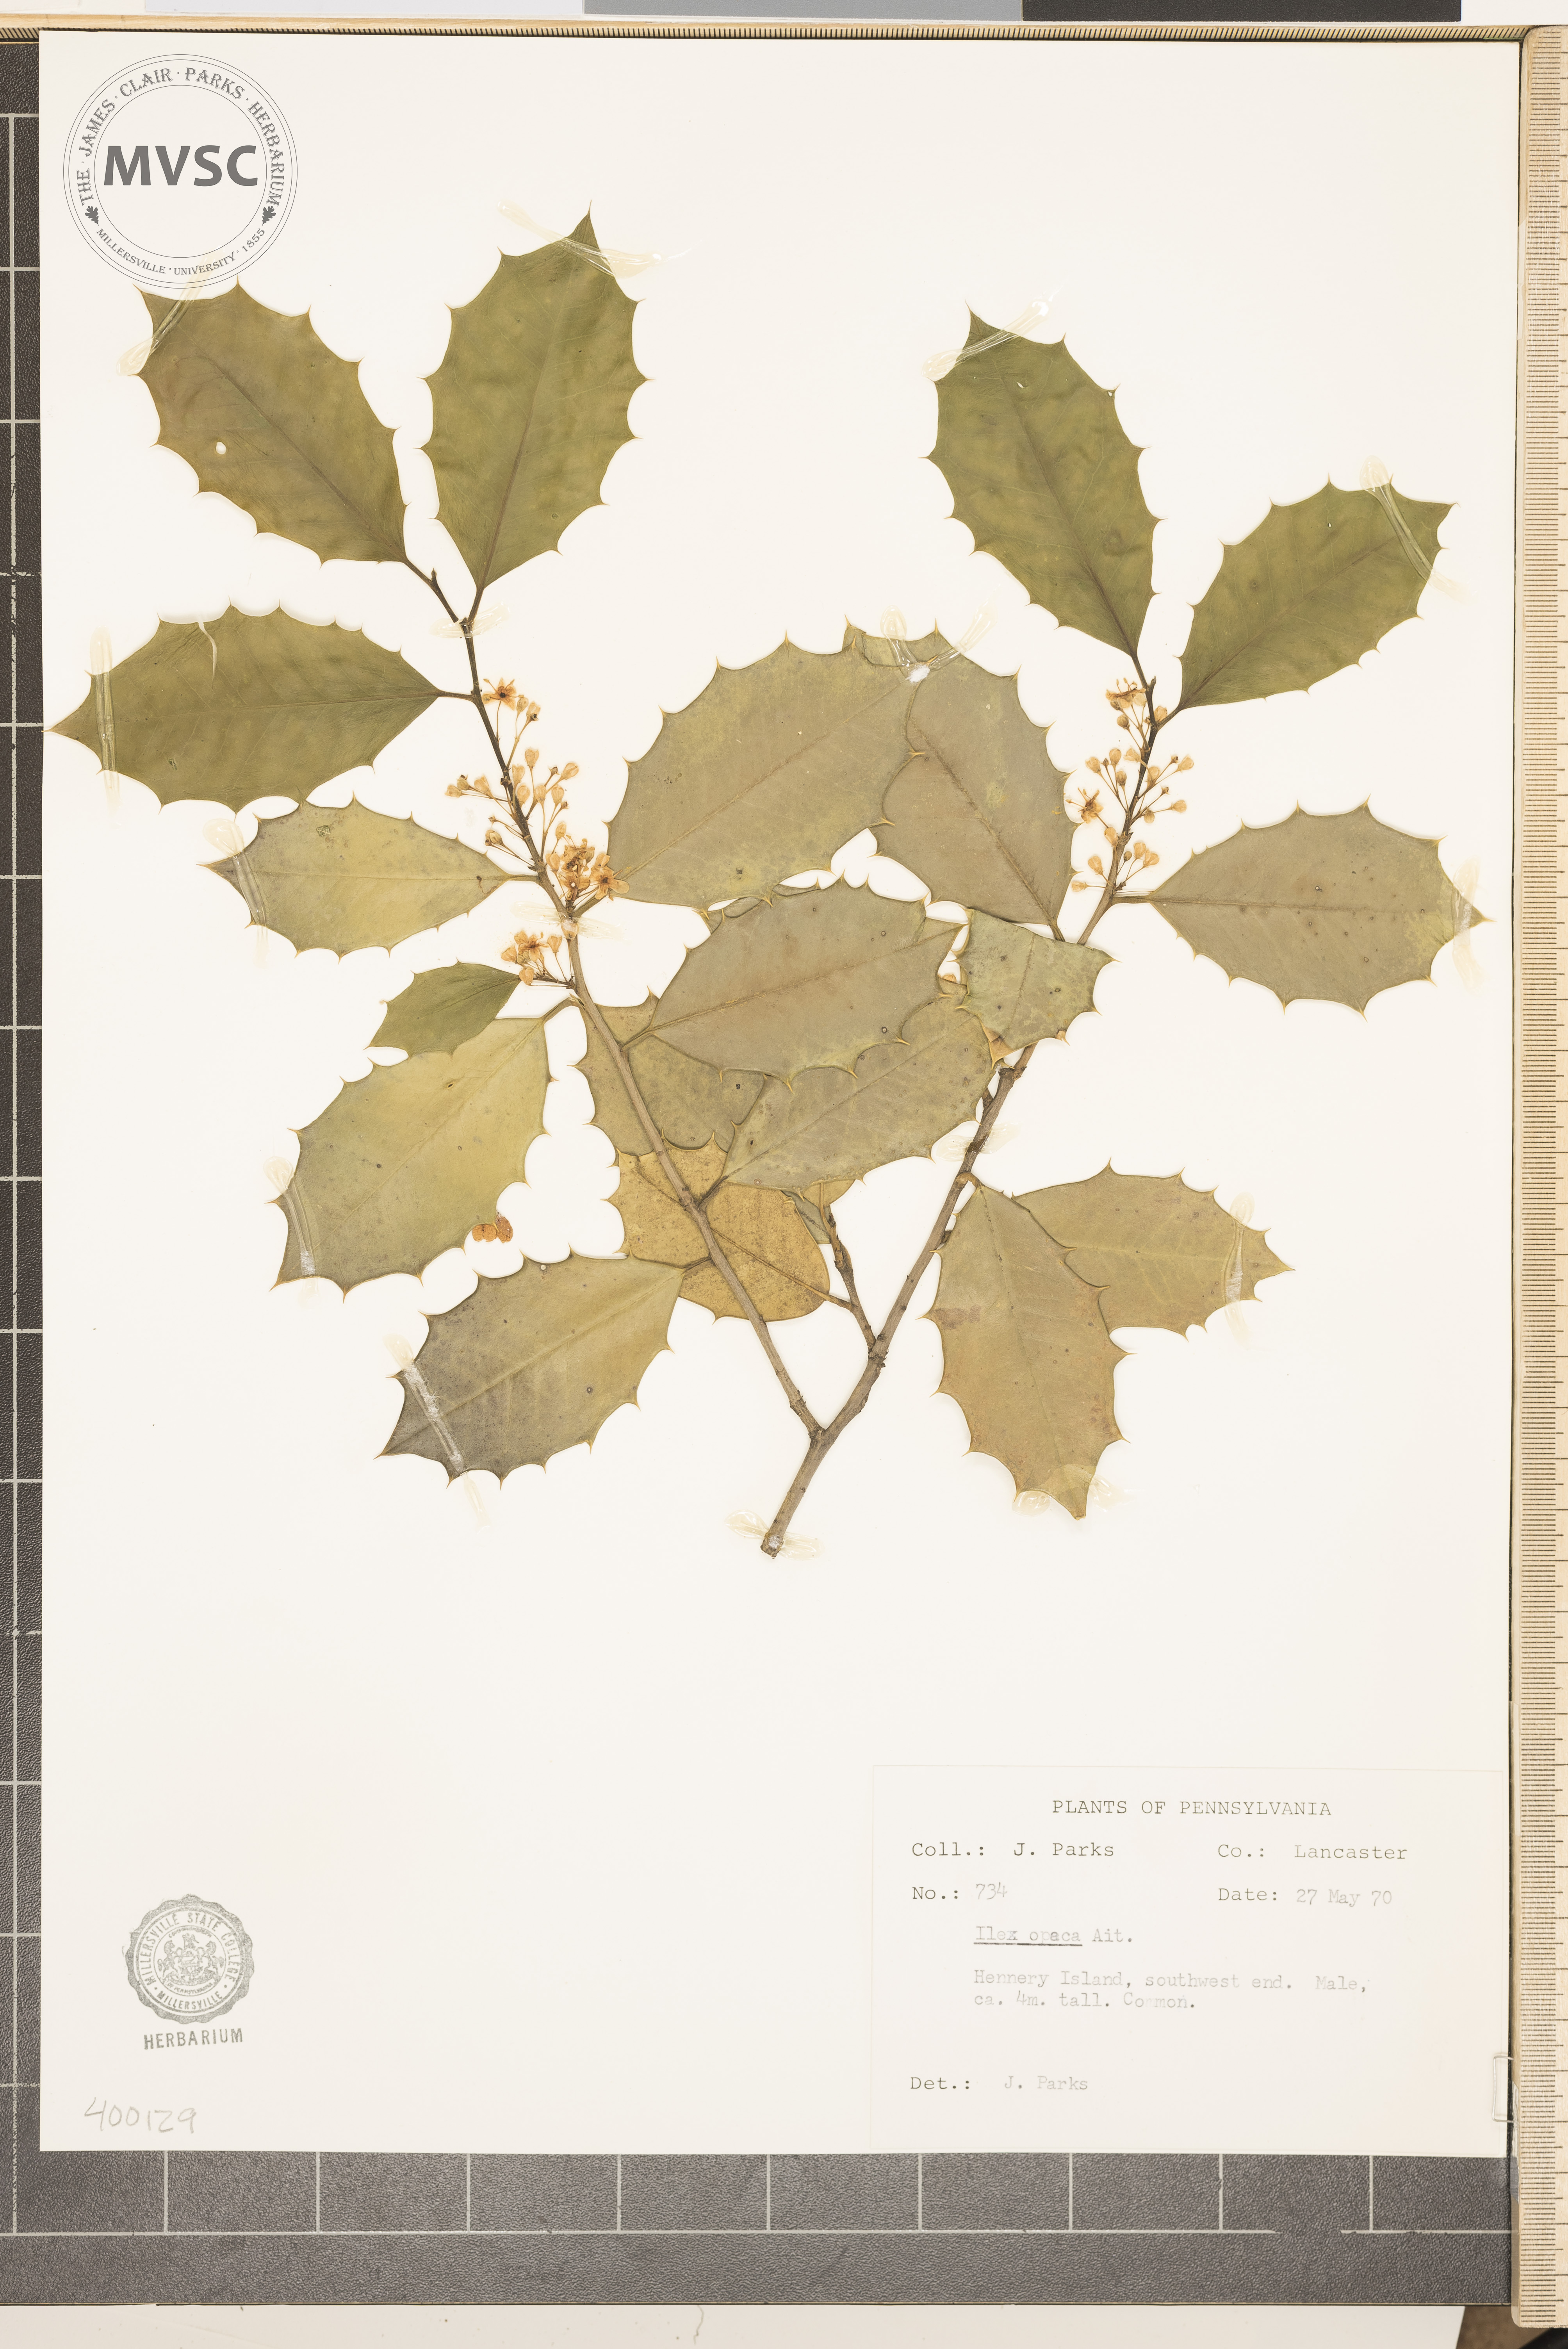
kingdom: Plantae
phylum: Tracheophyta
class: Magnoliopsida
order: Aquifoliales
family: Aquifoliaceae
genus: Ilex
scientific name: Ilex opaca
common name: American holly
